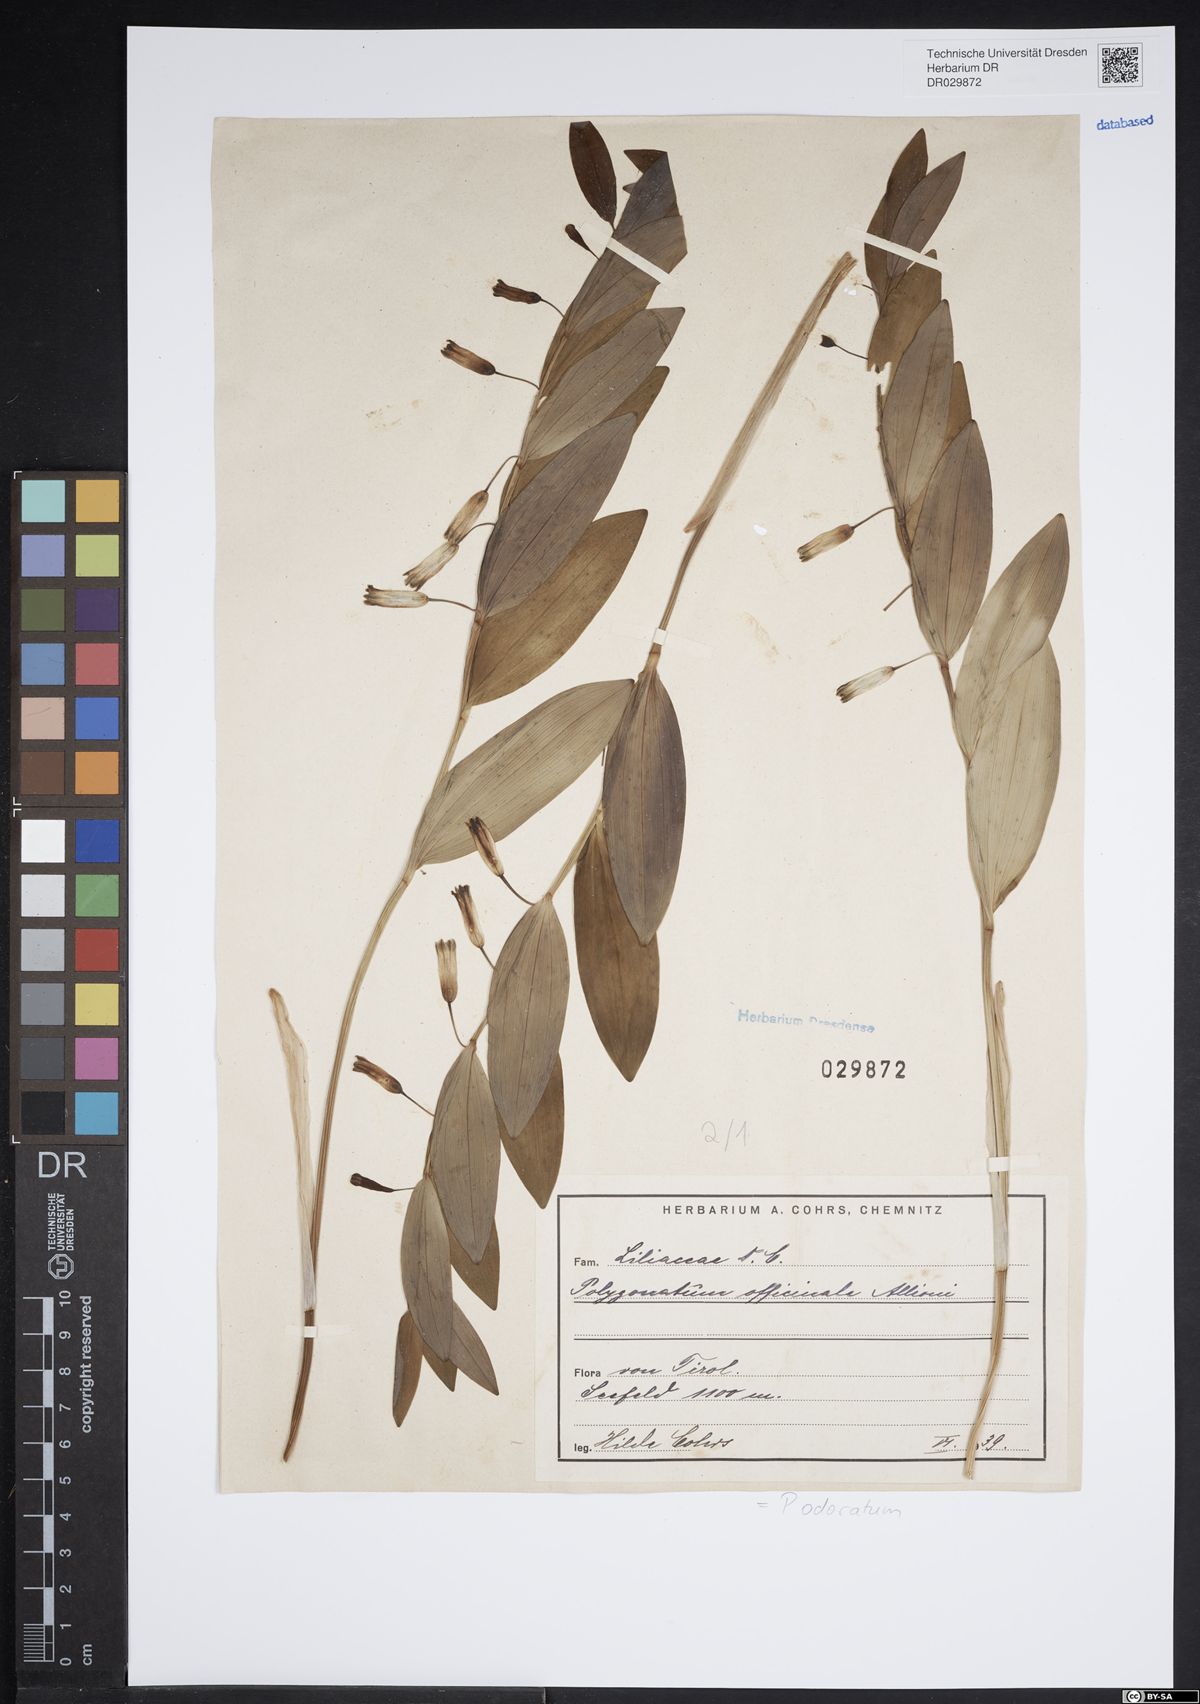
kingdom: Plantae
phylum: Tracheophyta
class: Liliopsida
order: Asparagales
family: Asparagaceae
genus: Polygonatum
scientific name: Polygonatum odoratum
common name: Angular solomon's-seal
